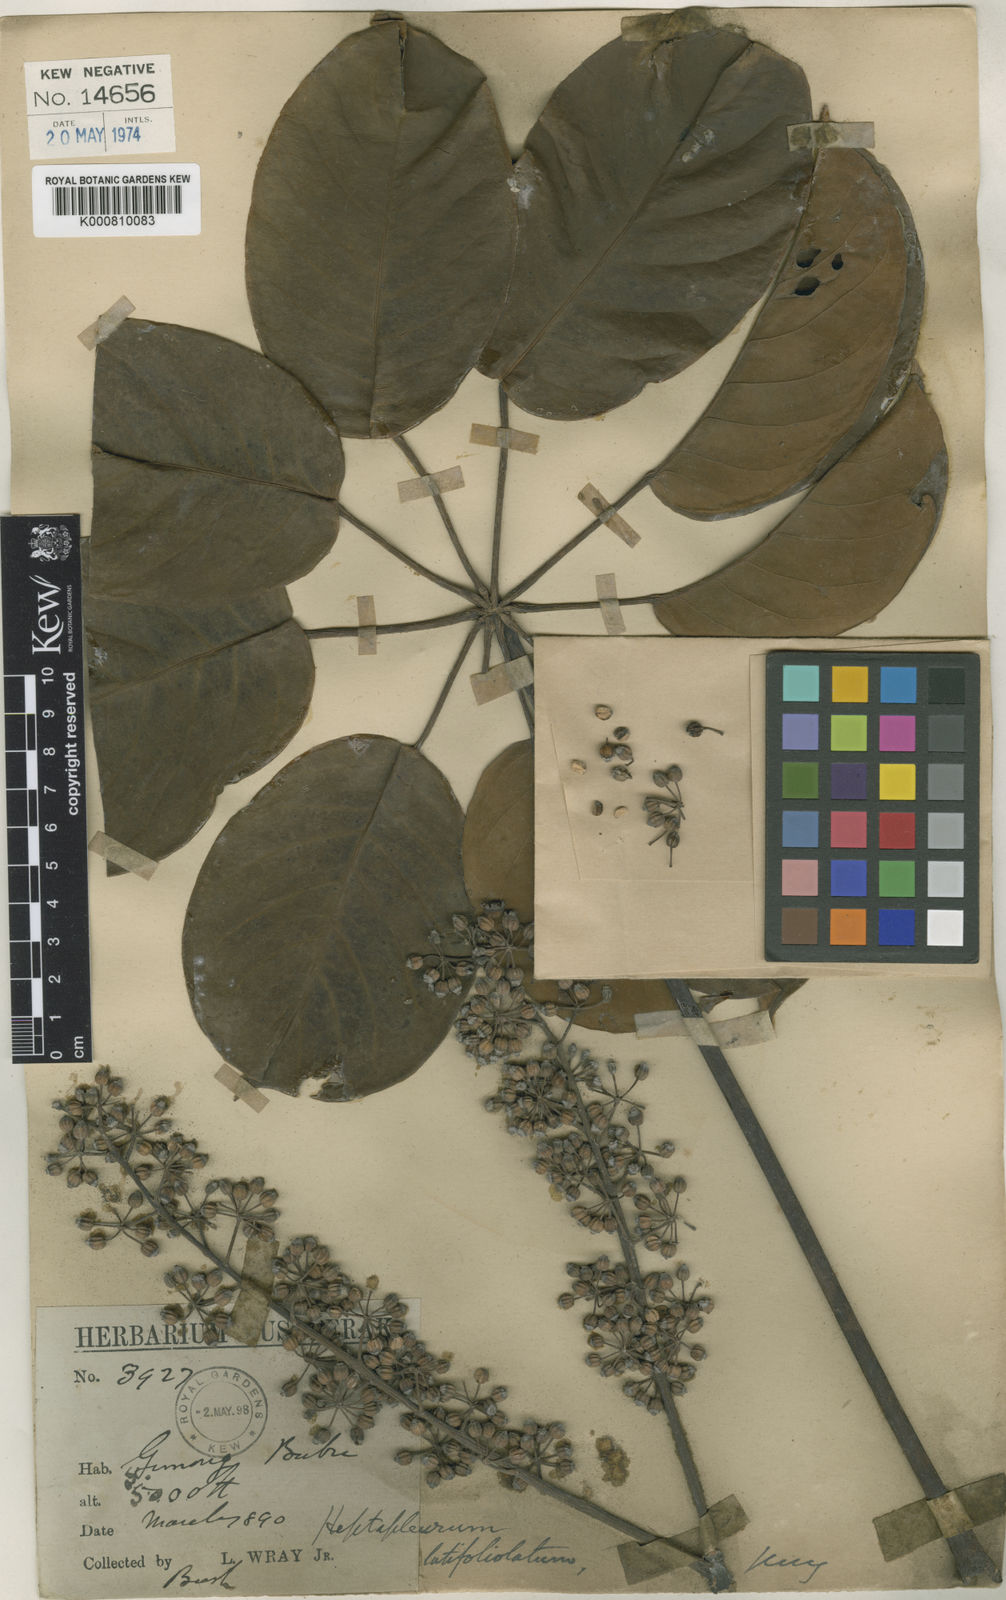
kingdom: Plantae
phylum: Tracheophyta
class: Magnoliopsida
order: Apiales
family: Araliaceae
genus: Heptapleurum
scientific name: Heptapleurum longifolium
